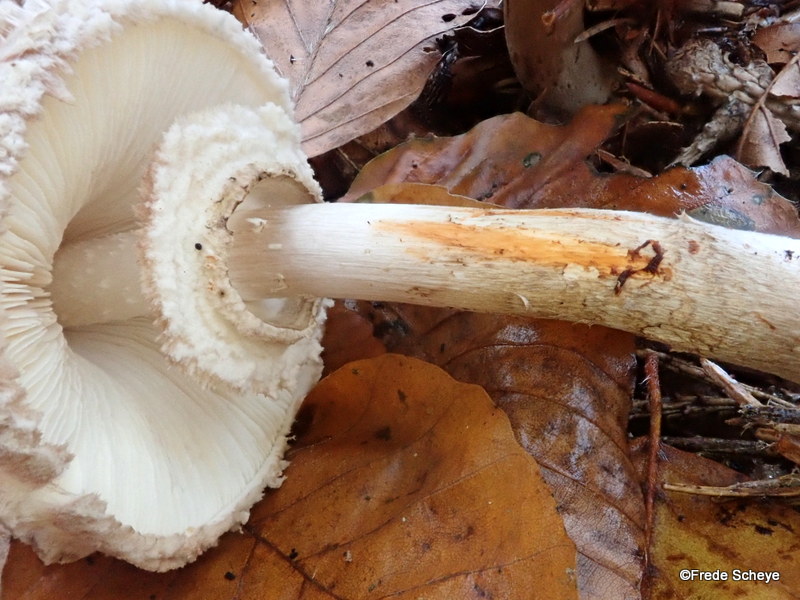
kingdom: Fungi
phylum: Basidiomycota
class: Agaricomycetes
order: Agaricales
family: Agaricaceae
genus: Chlorophyllum
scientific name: Chlorophyllum olivieri
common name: almindelig rabarberhat
